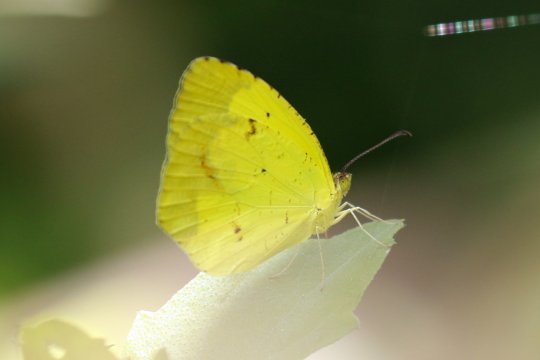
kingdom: Animalia
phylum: Arthropoda
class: Insecta
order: Lepidoptera
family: Pieridae
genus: Eurema
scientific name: Eurema boisduvaliana
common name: Boisduval's Yellow
